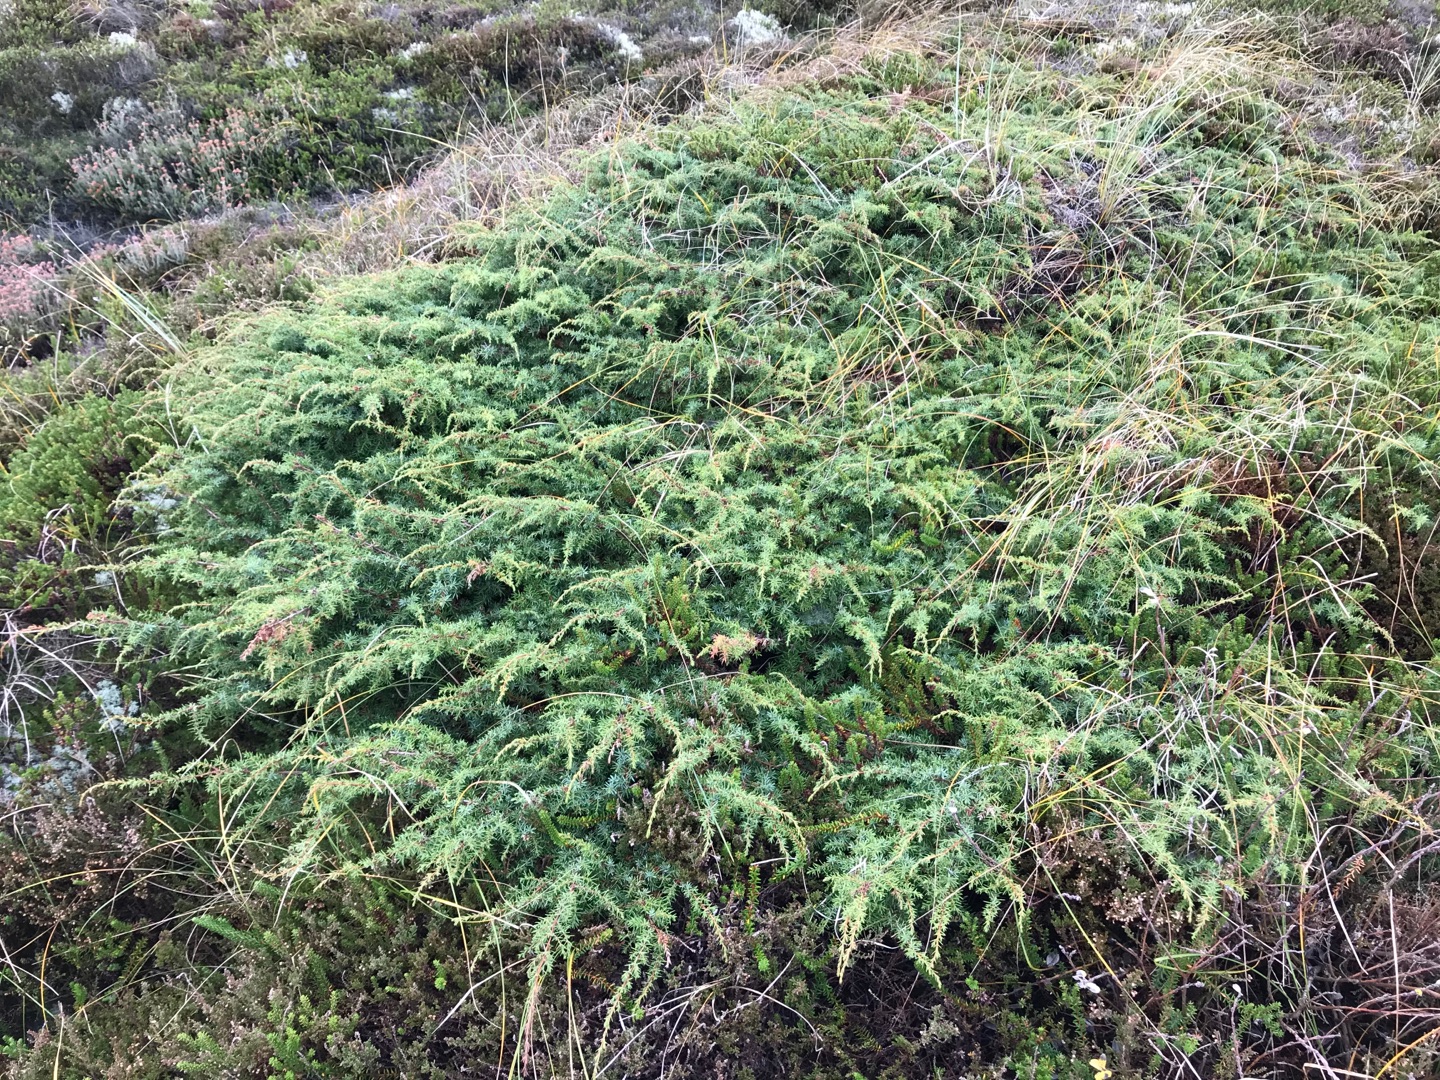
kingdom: Plantae
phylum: Tracheophyta
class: Pinopsida
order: Pinales
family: Cupressaceae
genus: Juniperus
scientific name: Juniperus communis
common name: Almindelig ene
